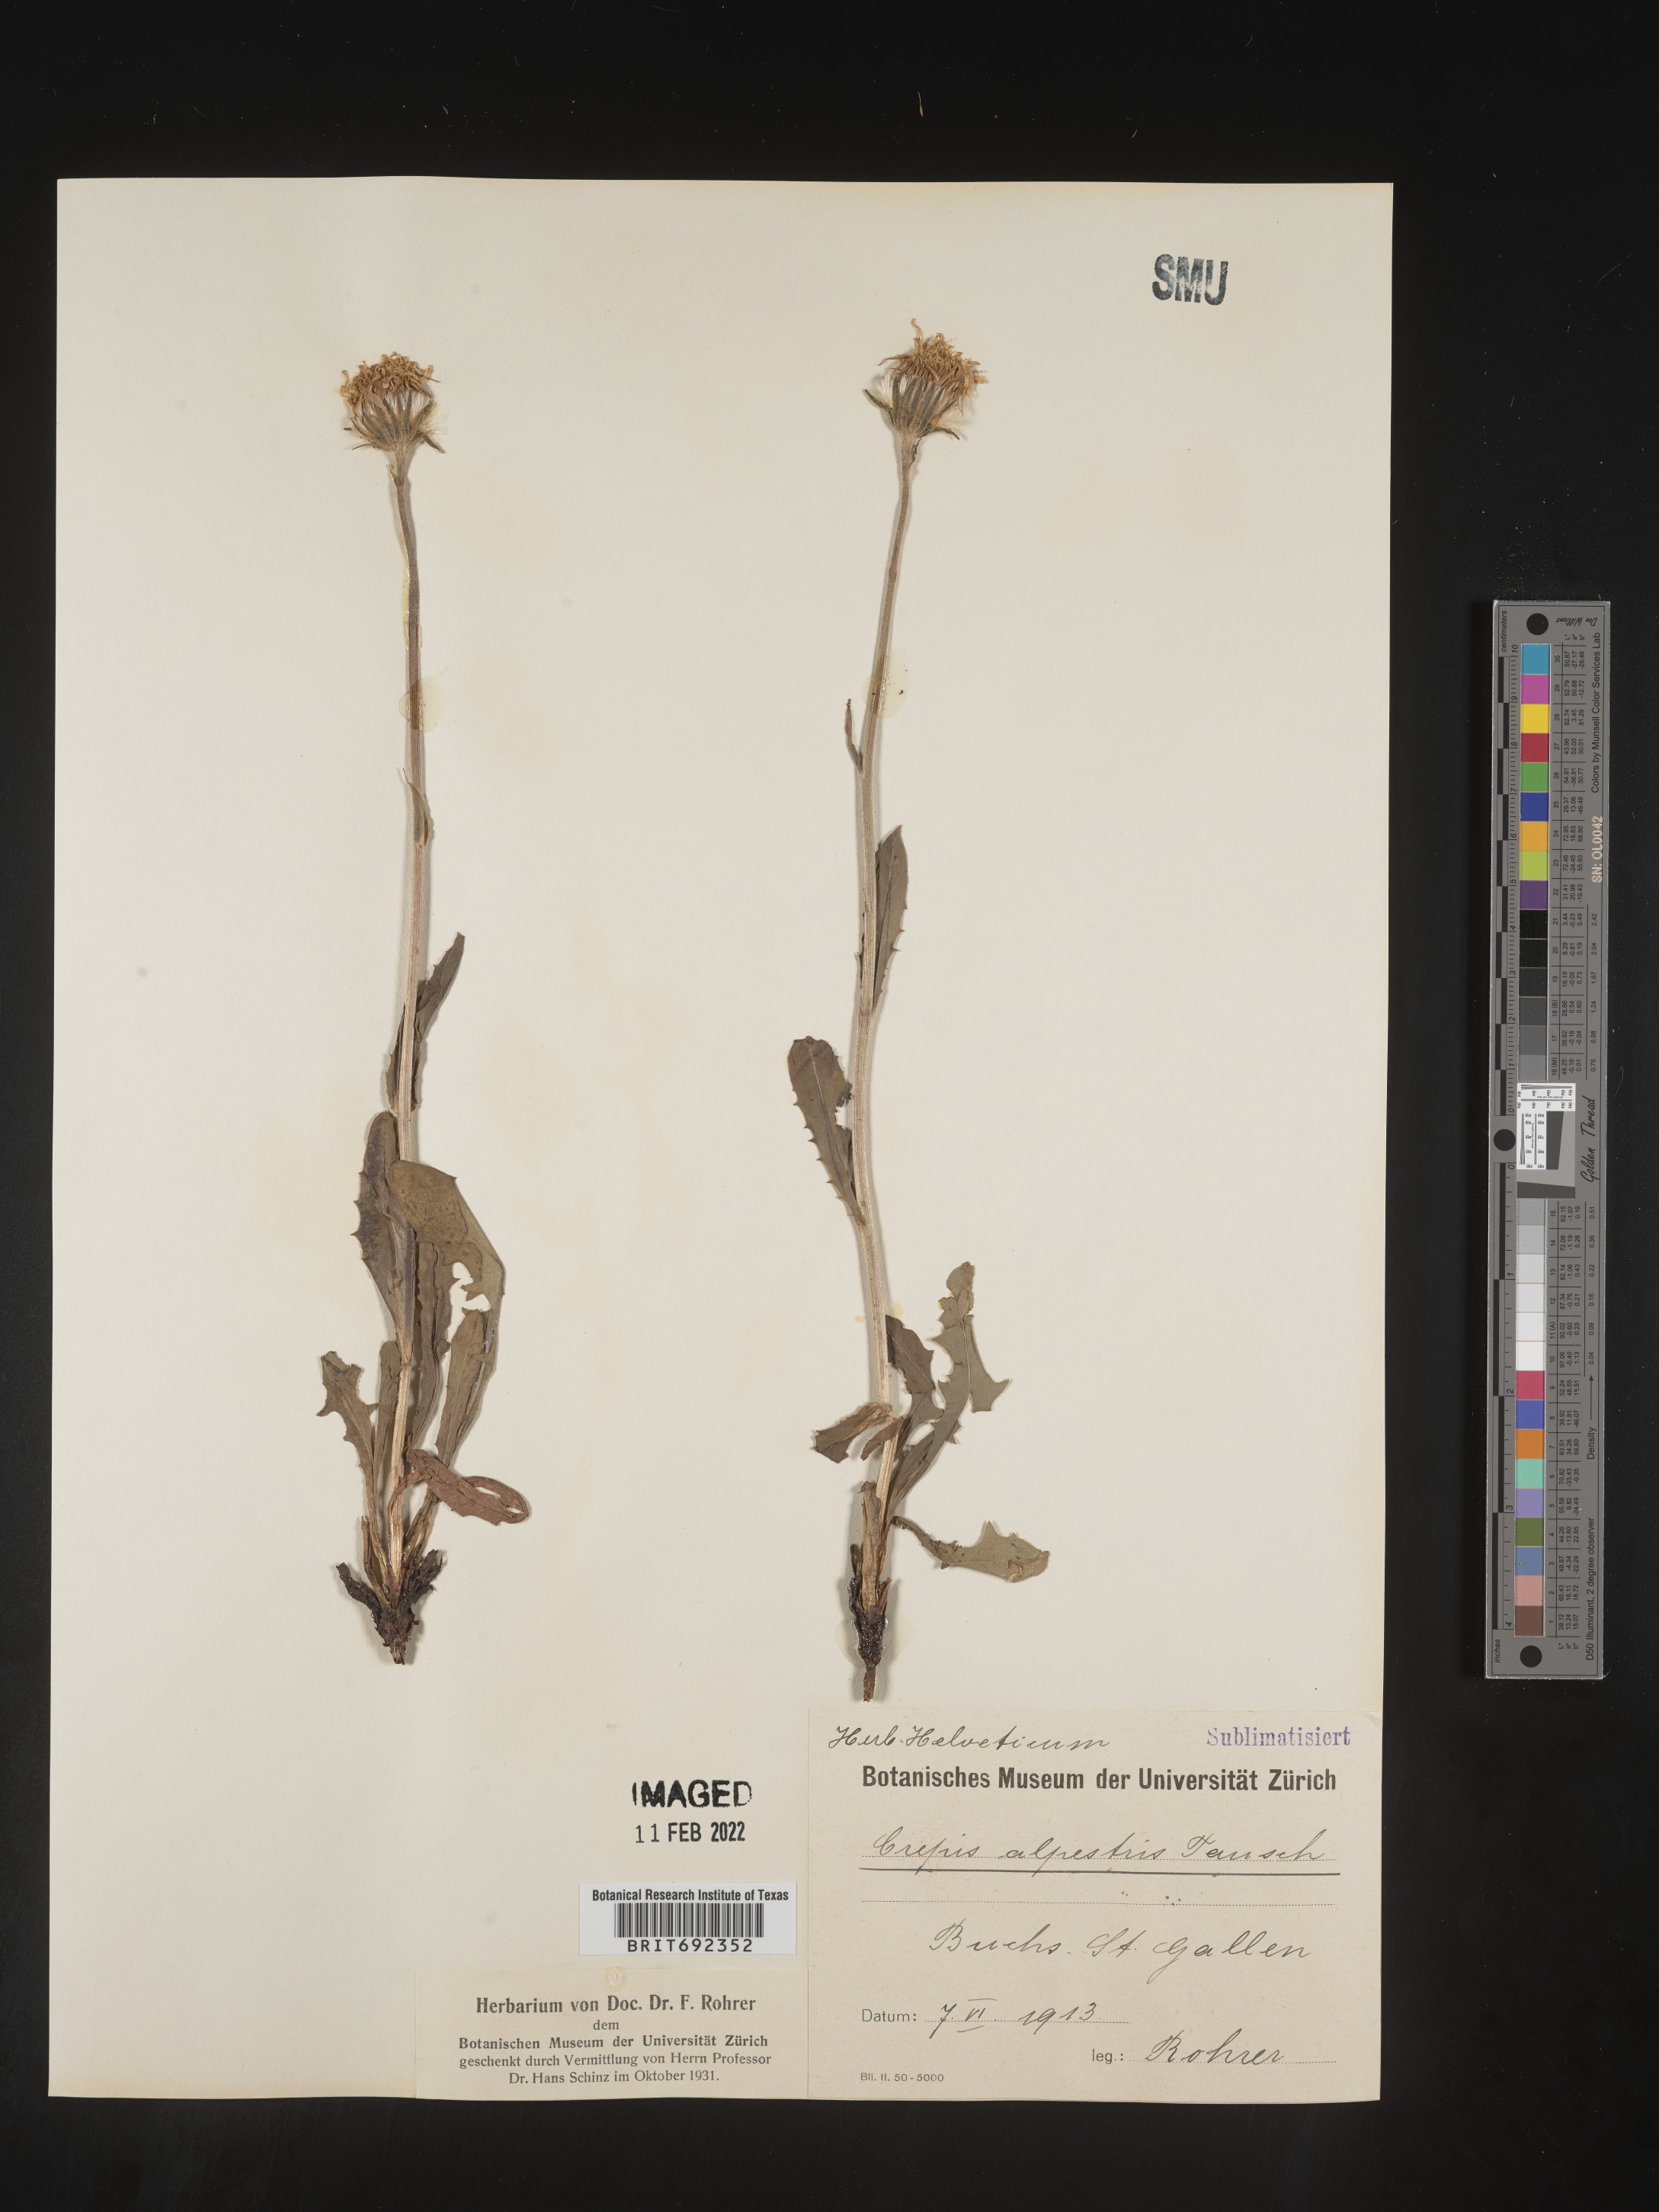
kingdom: Plantae
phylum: Tracheophyta
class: Magnoliopsida
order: Asterales
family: Asteraceae
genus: Crepis
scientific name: Crepis
